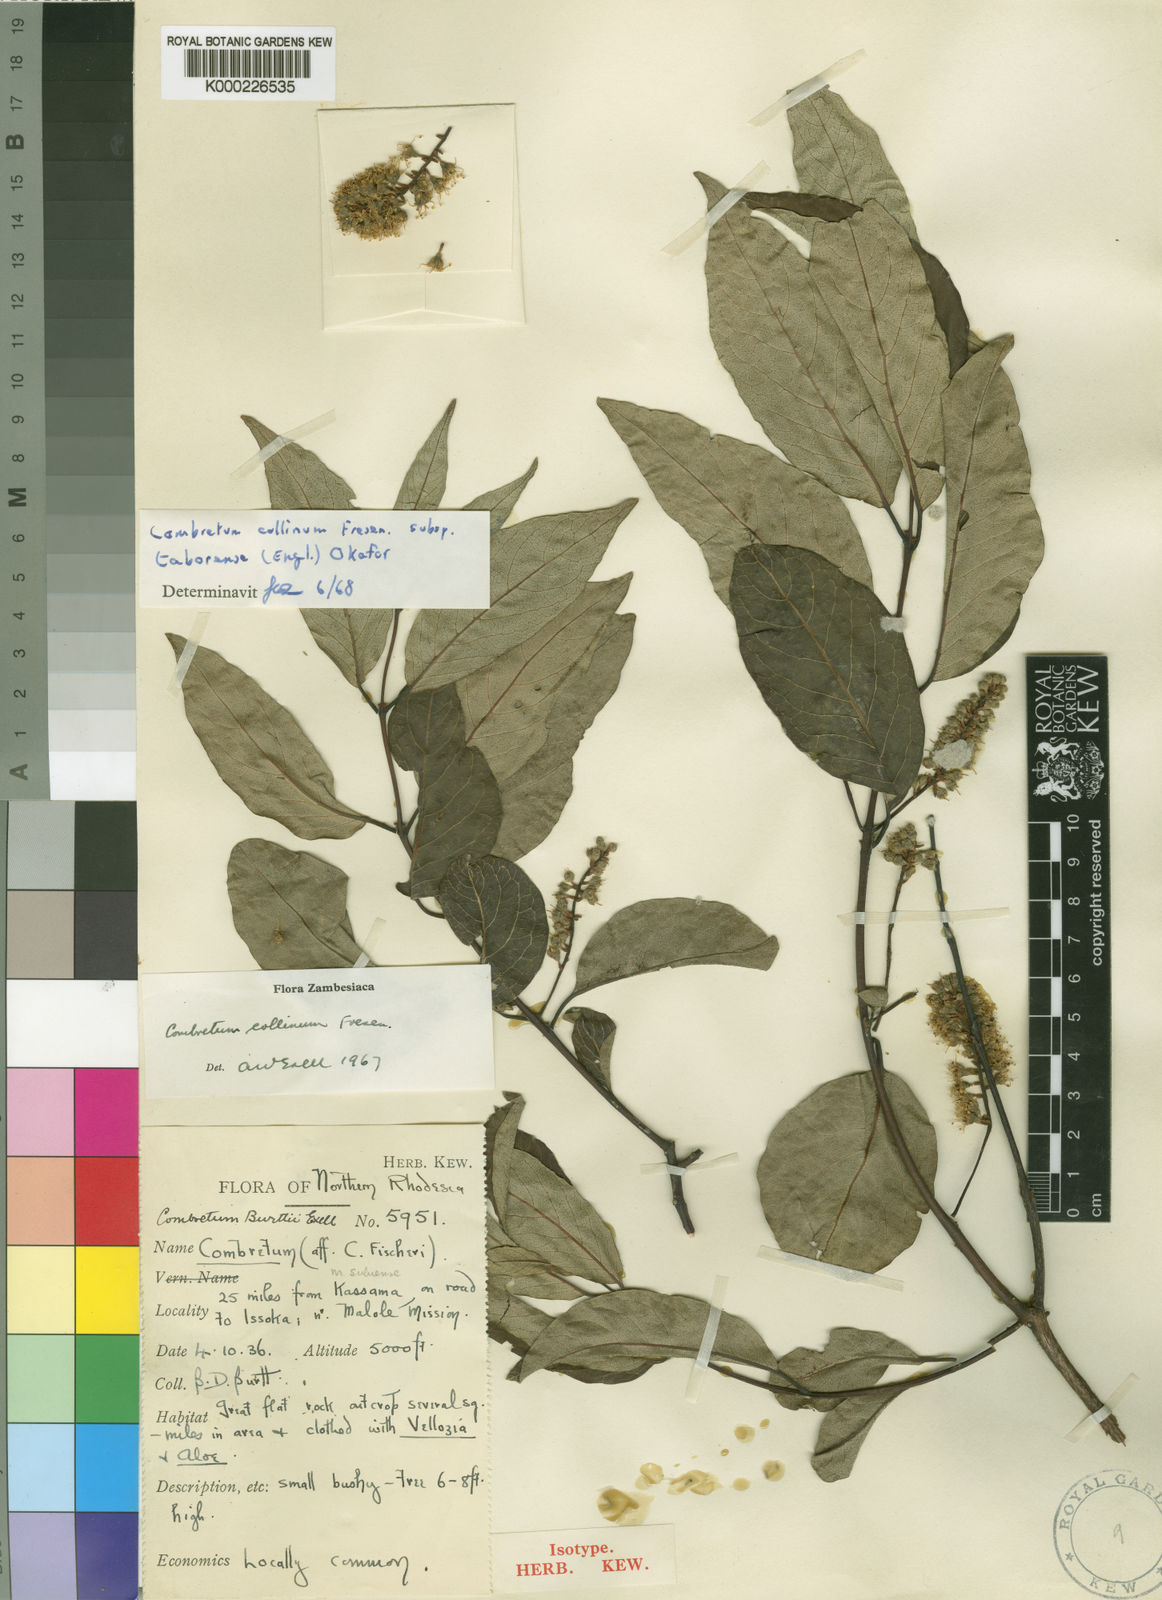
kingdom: Plantae
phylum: Tracheophyta
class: Magnoliopsida
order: Myrtales
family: Combretaceae
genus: Combretum
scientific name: Combretum collinum
